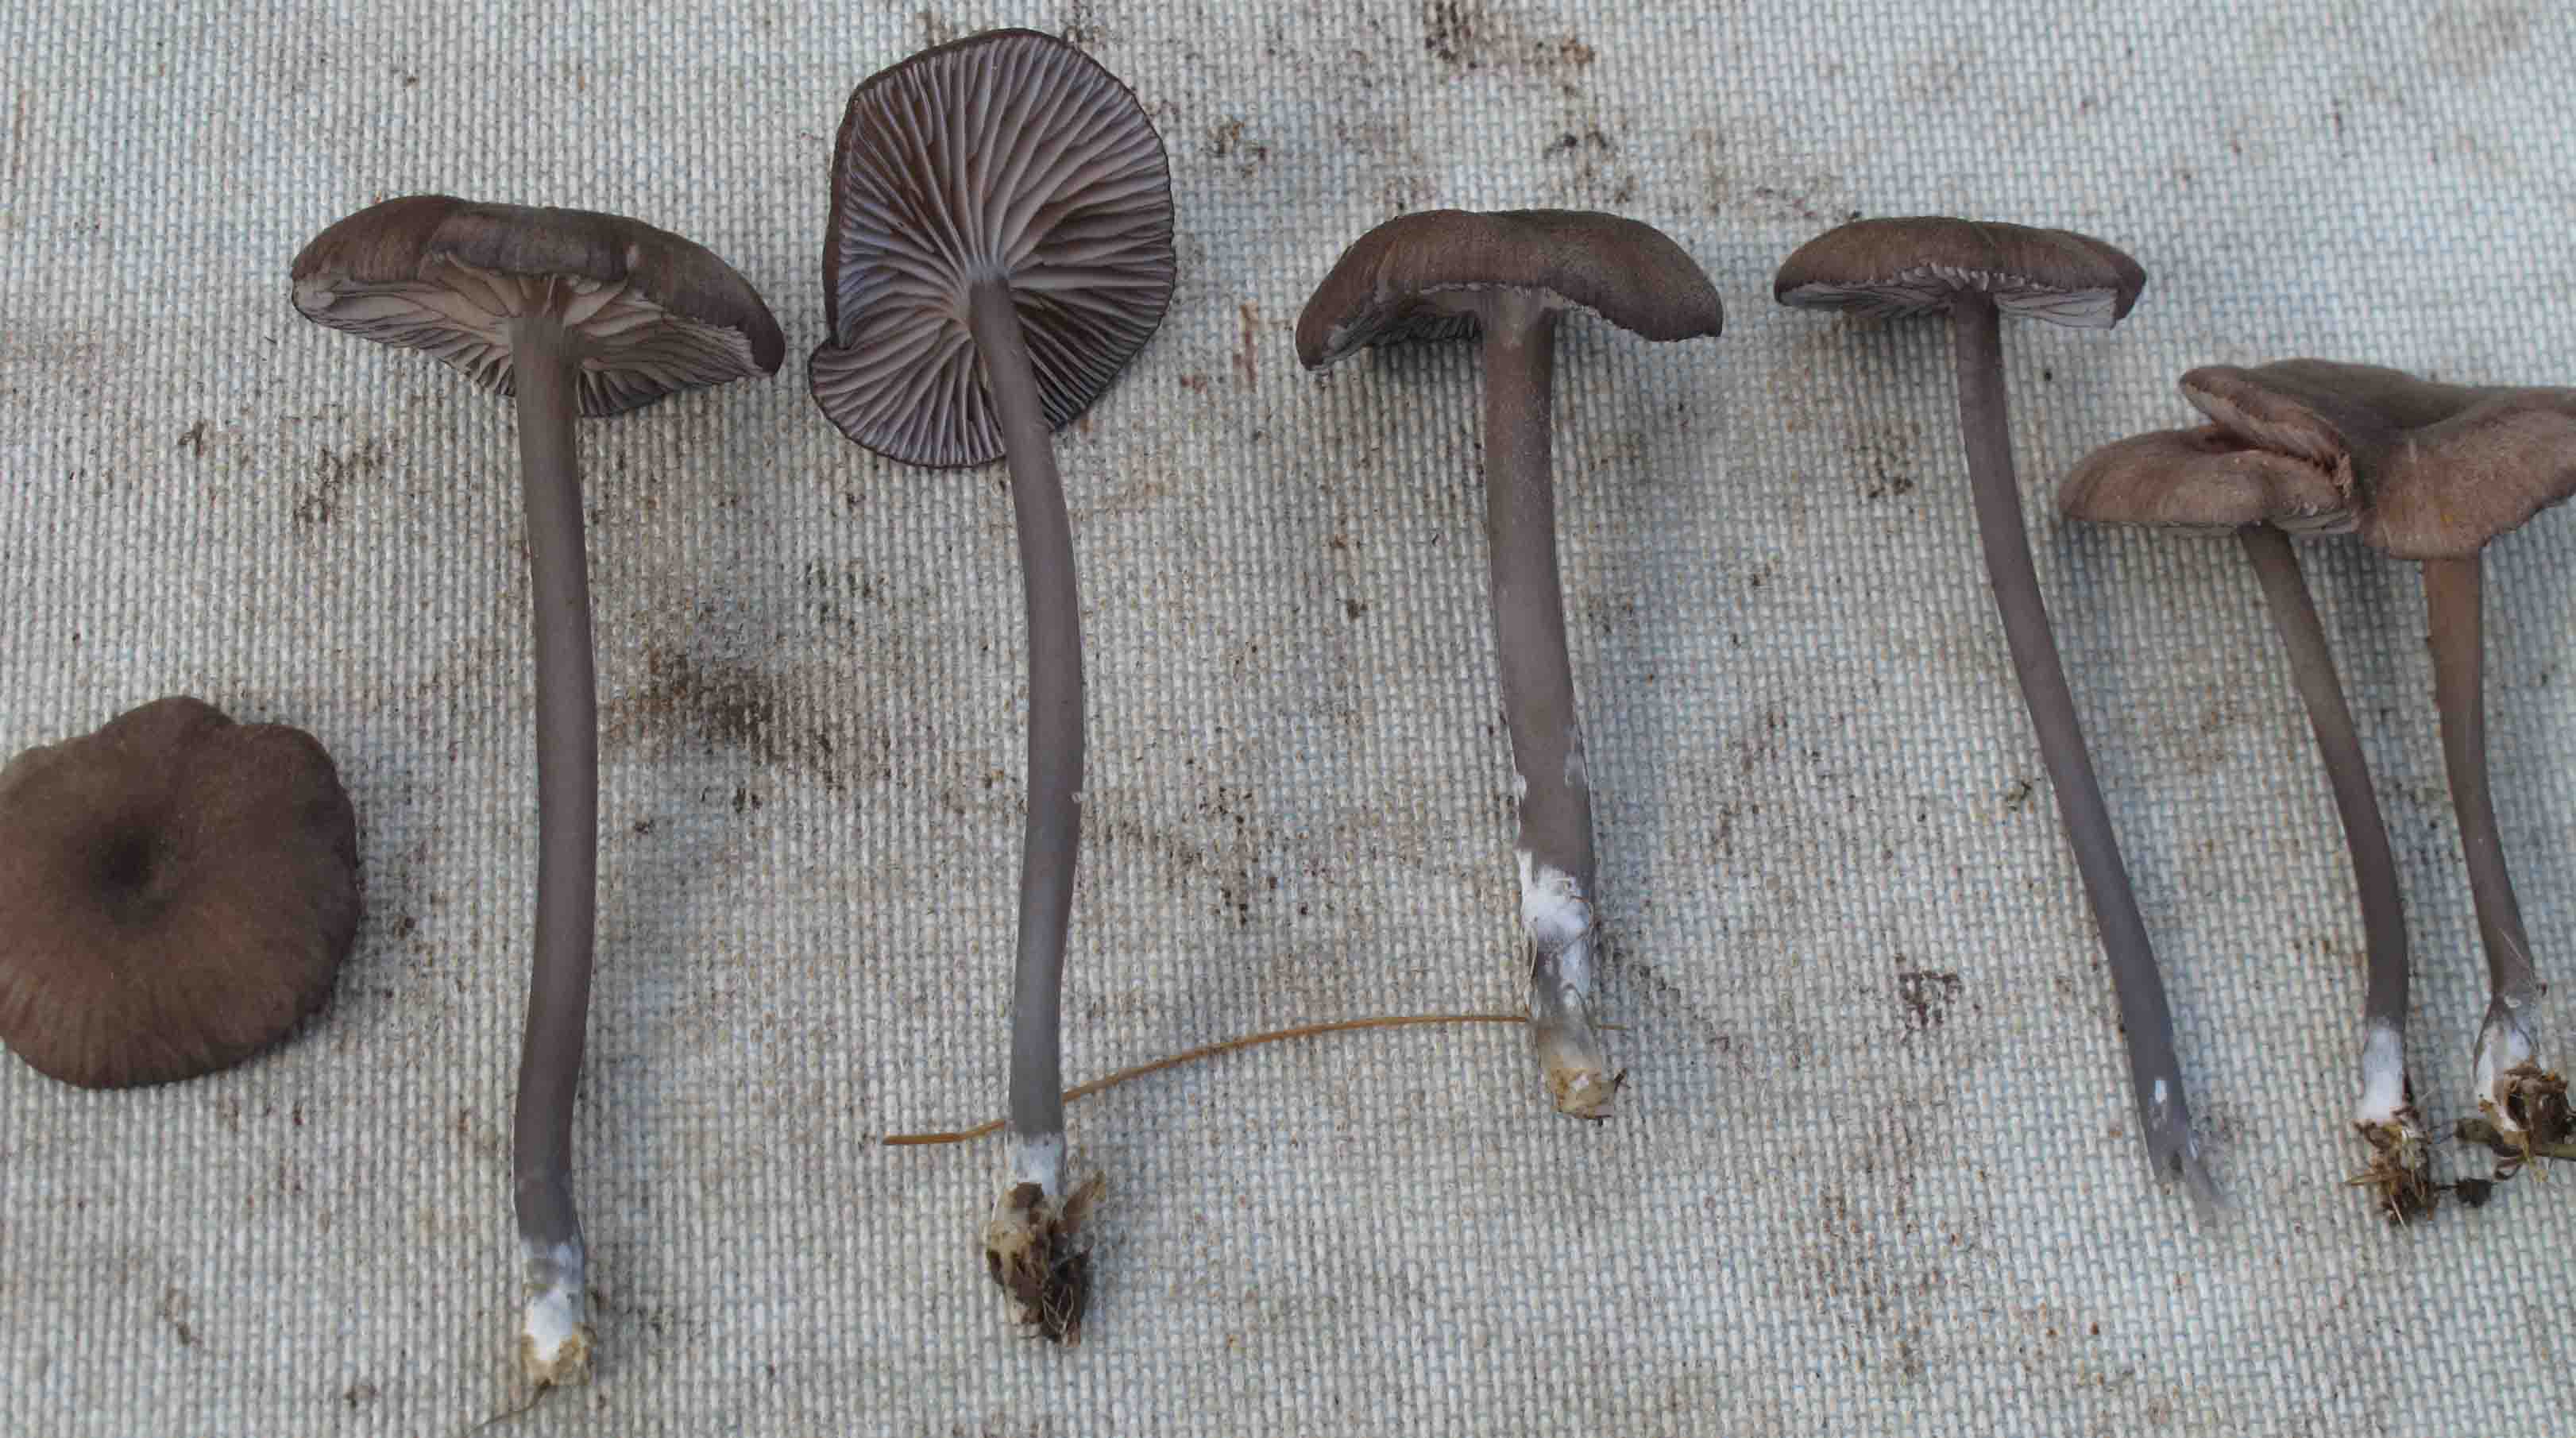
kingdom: Fungi
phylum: Basidiomycota
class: Agaricomycetes
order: Agaricales
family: Entolomataceae
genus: Entoloma
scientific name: Entoloma
